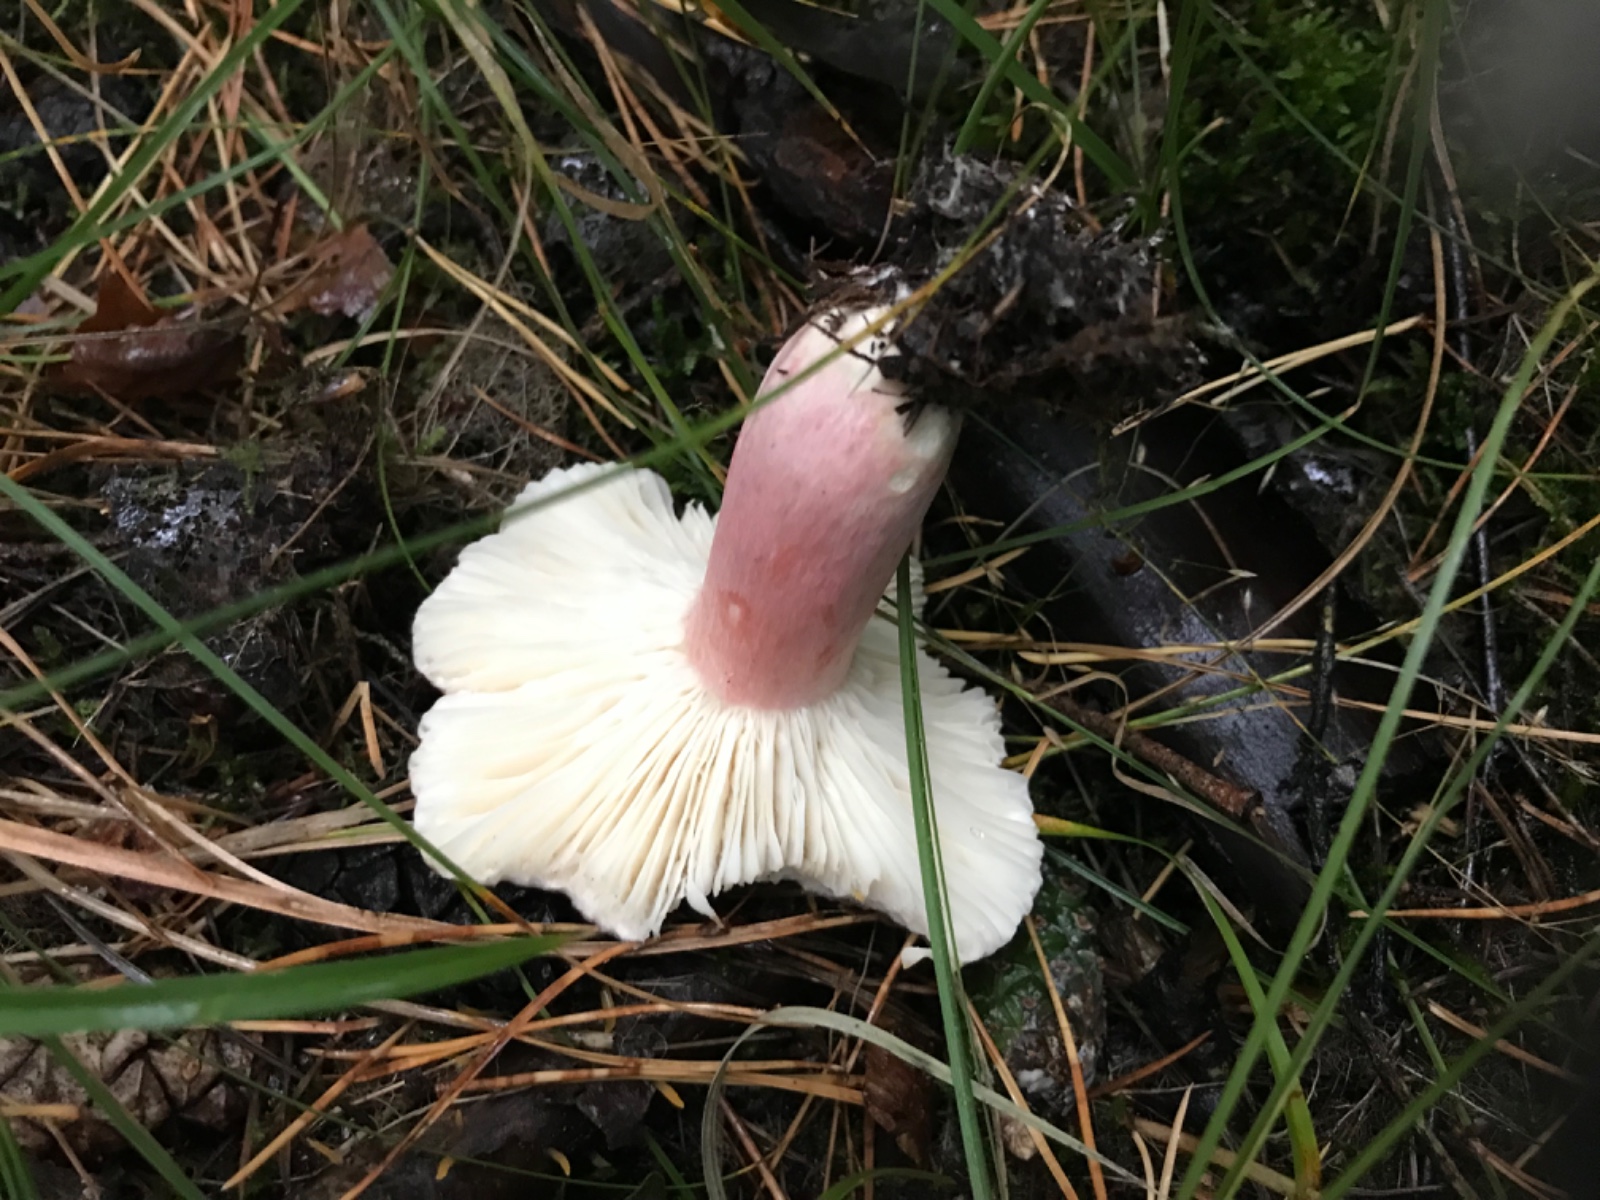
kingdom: Fungi
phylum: Basidiomycota
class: Agaricomycetes
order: Russulales
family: Russulaceae
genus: Russula
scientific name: Russula sanguinea
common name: blodrød skørhat
